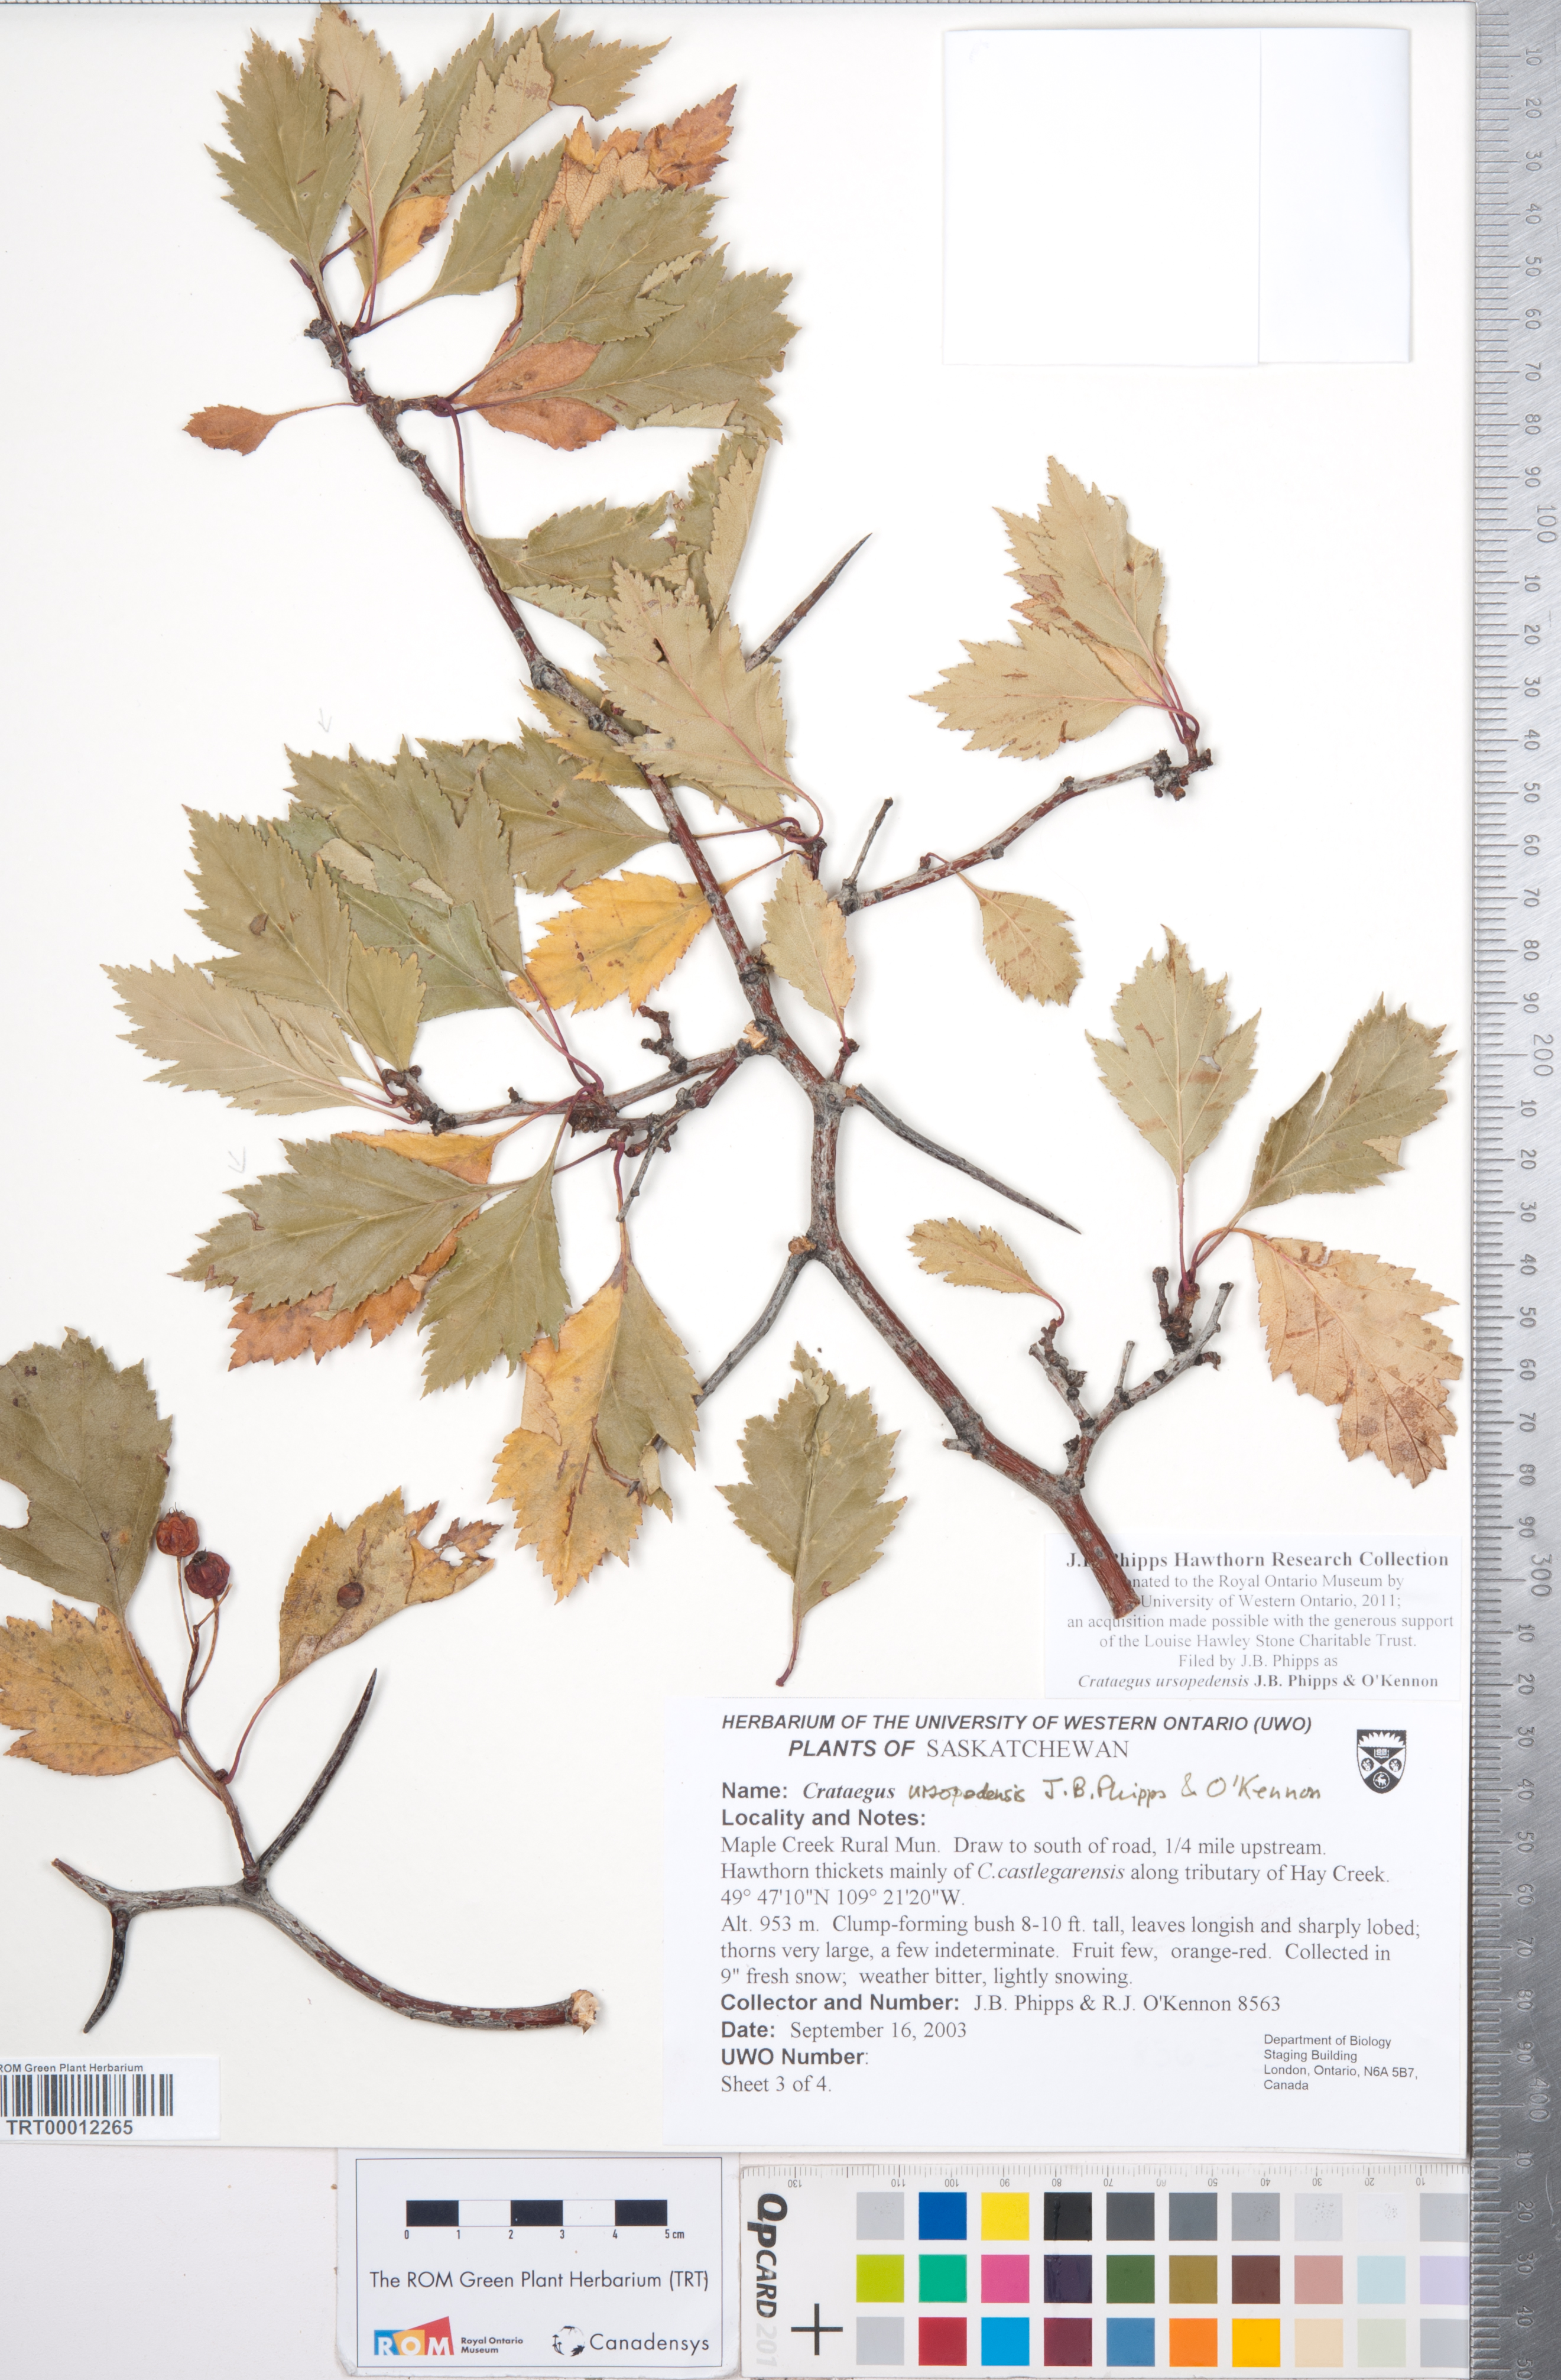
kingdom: Plantae
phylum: Tracheophyta
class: Magnoliopsida
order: Rosales
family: Rosaceae
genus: Crataegus
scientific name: Crataegus ursopedensis
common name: Bears paw hawthorn
